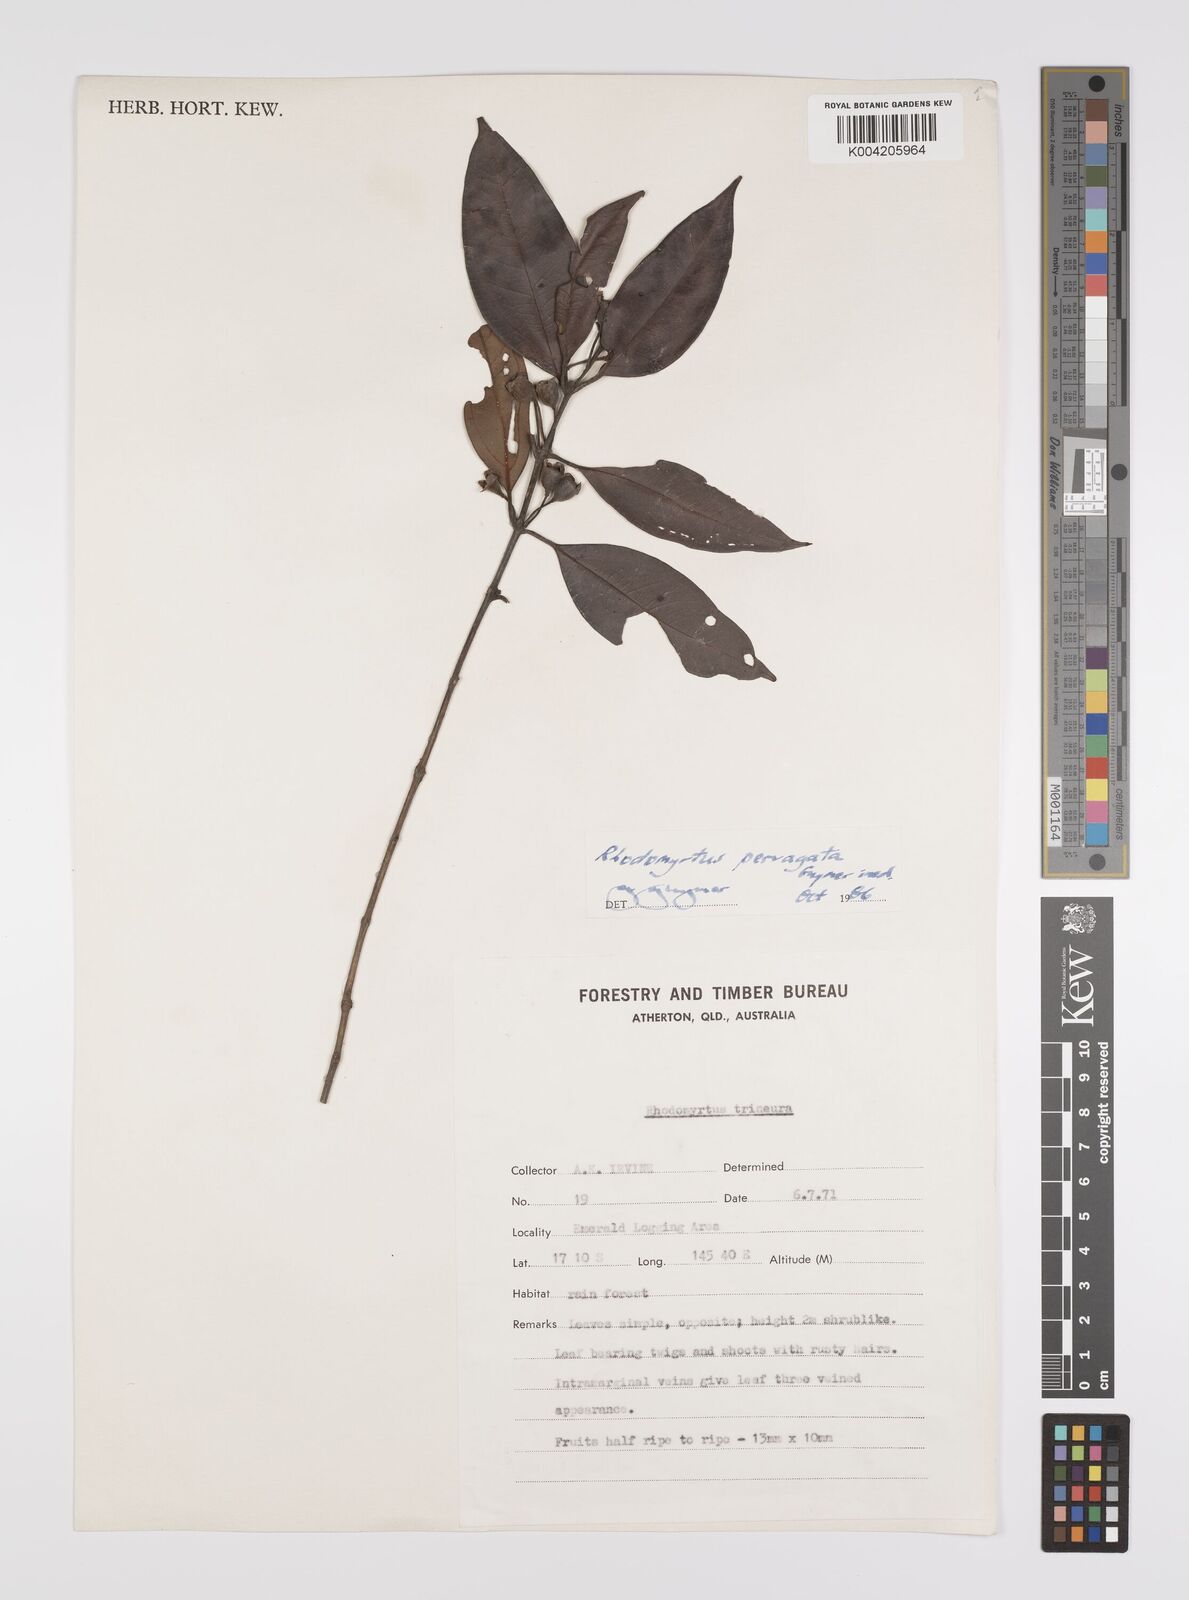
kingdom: Plantae
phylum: Tracheophyta
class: Magnoliopsida
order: Myrtales
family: Myrtaceae
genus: Rhodomyrtus
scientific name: Rhodomyrtus pervagata
